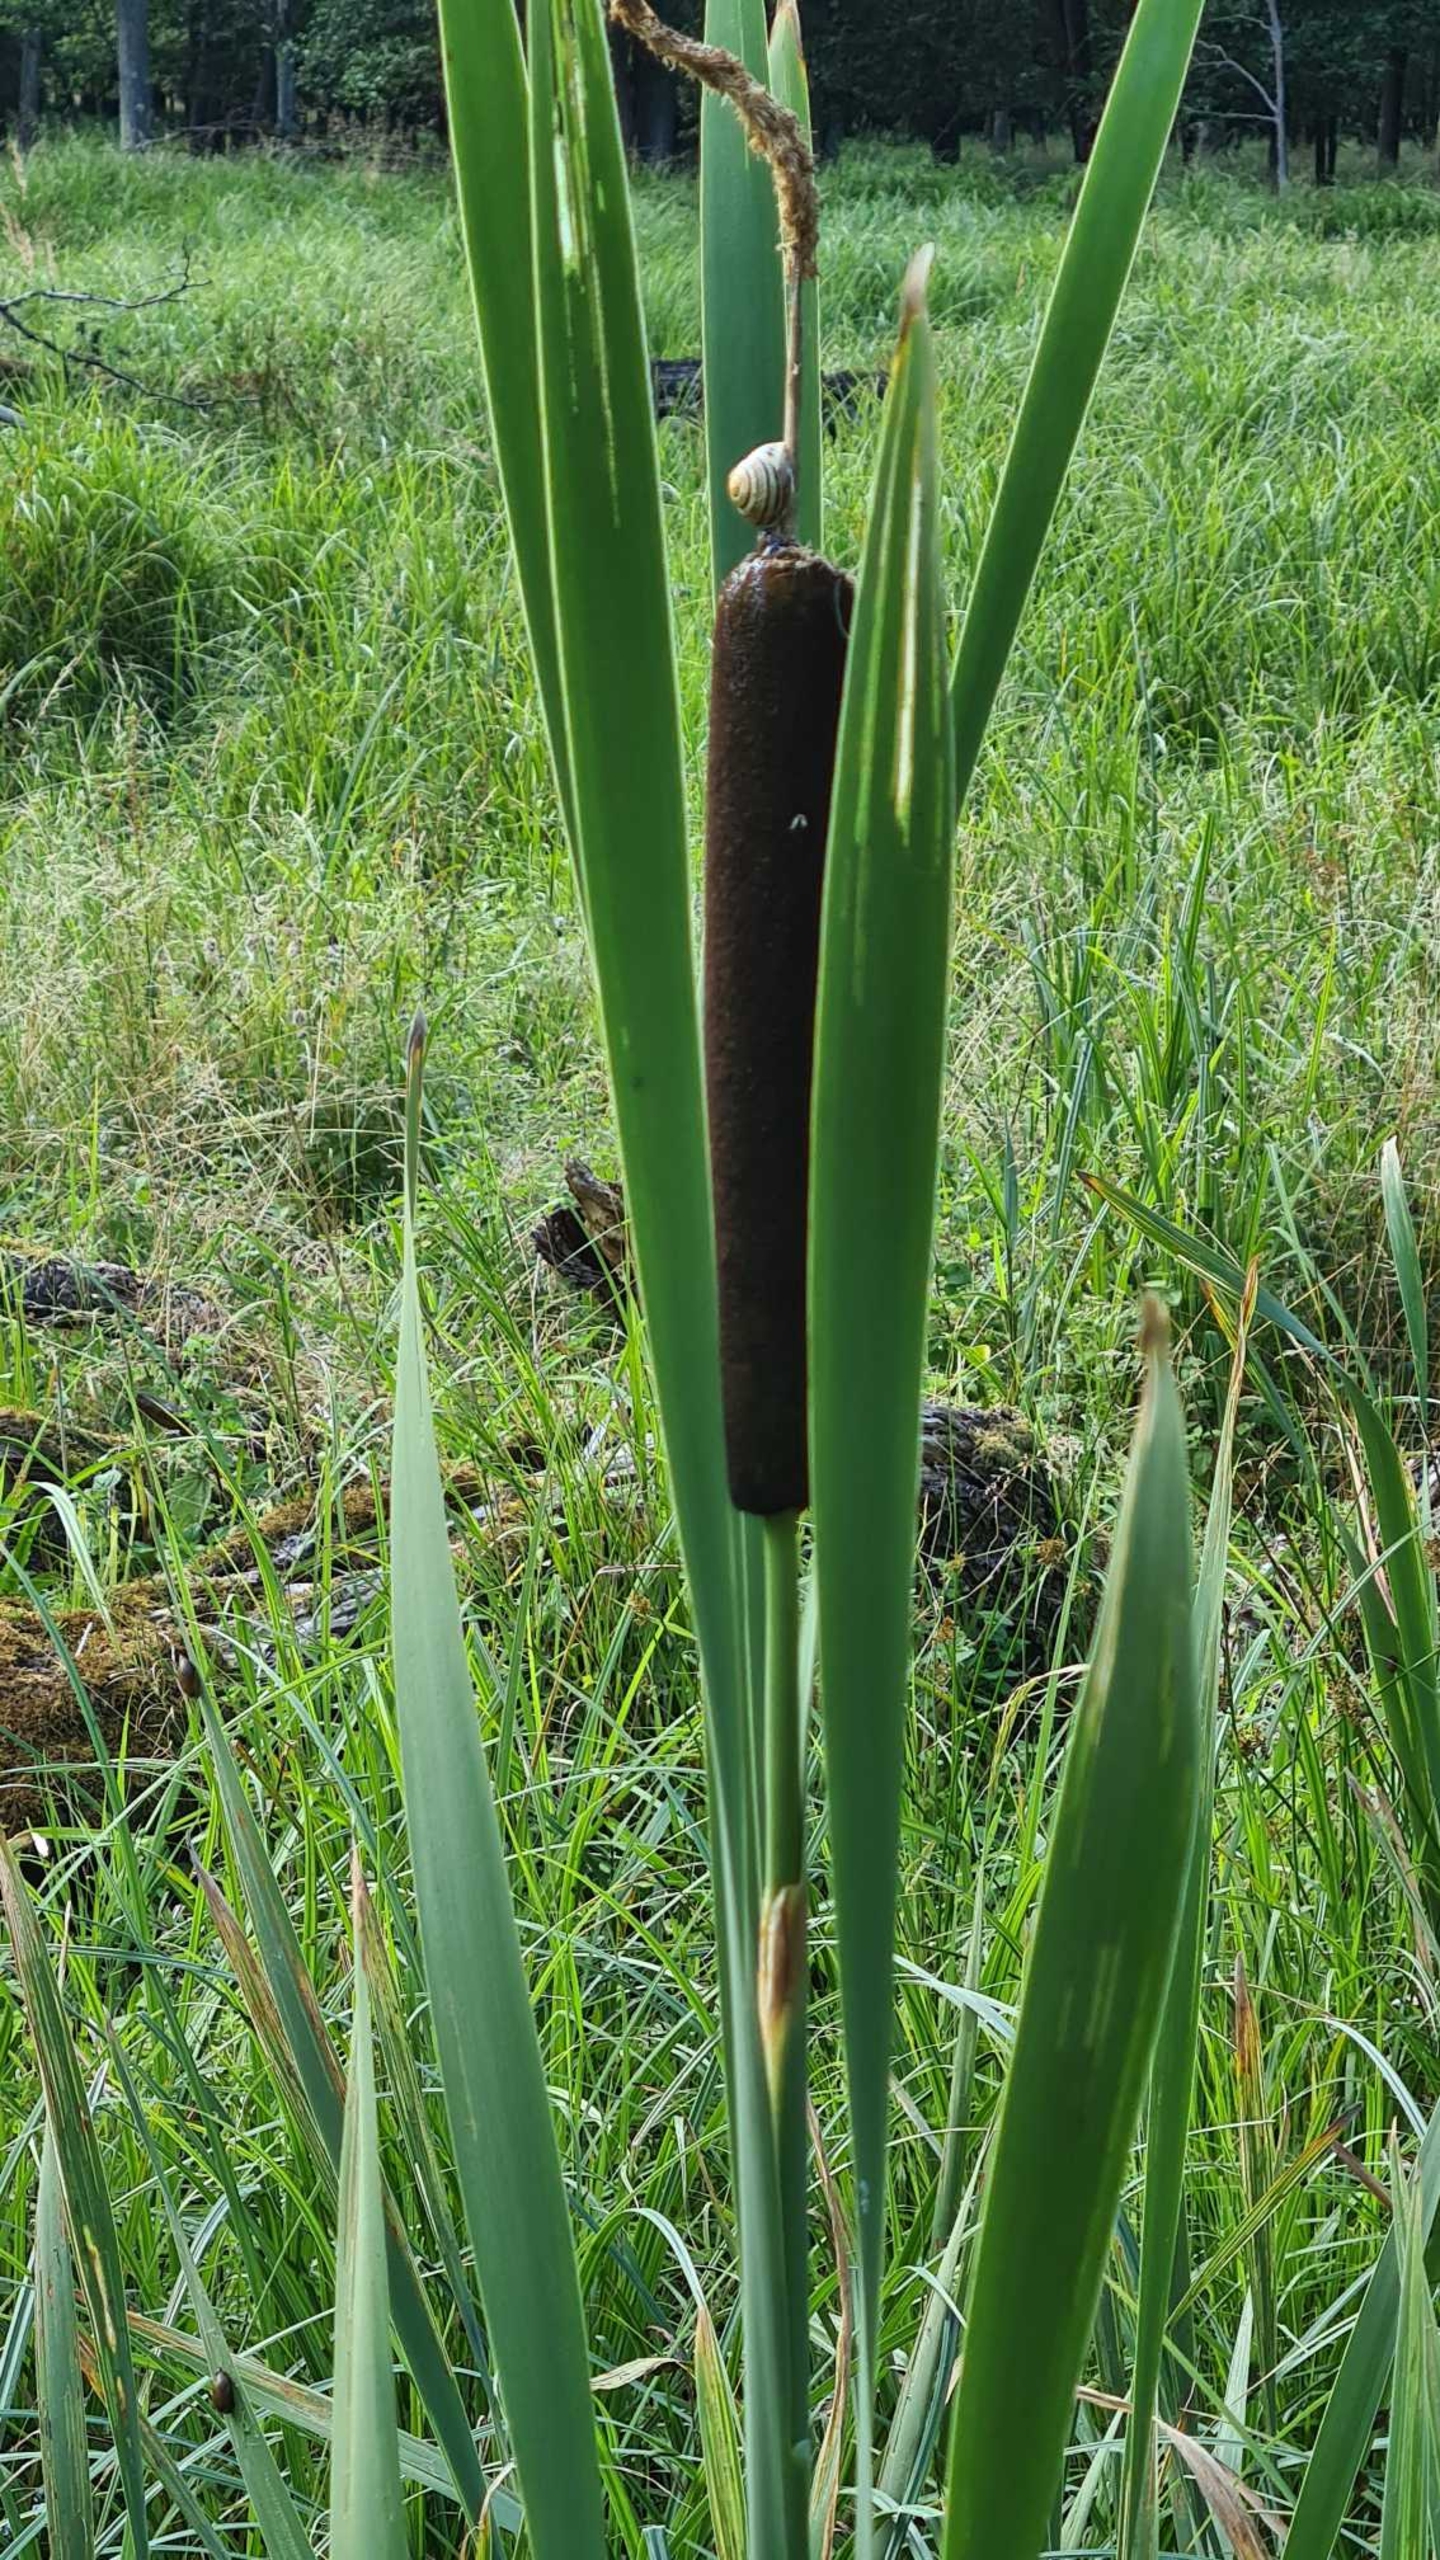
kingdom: Plantae
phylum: Tracheophyta
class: Liliopsida
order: Poales
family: Typhaceae
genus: Typha
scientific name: Typha latifolia
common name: Bredbladet dunhammer
